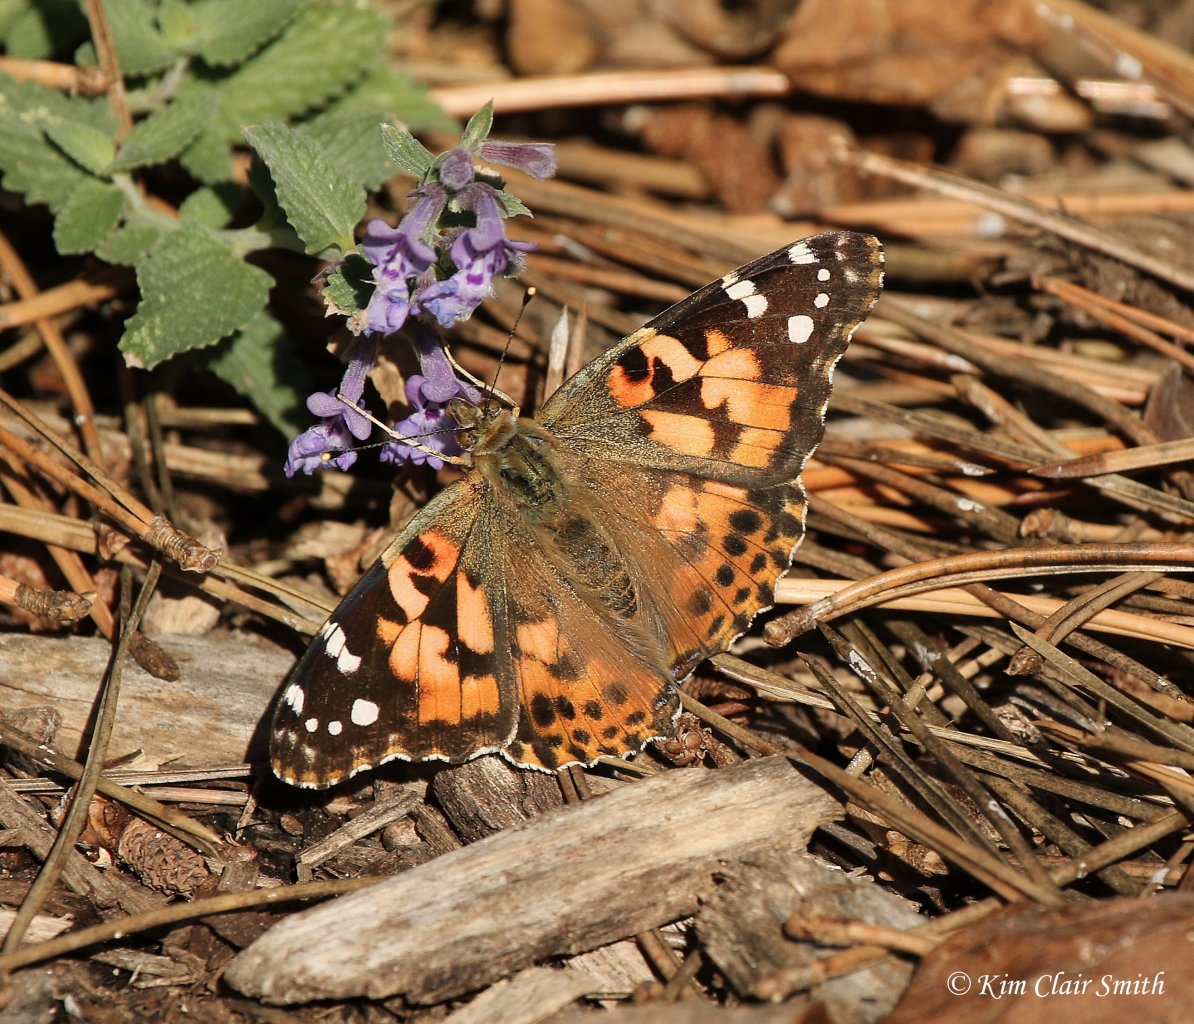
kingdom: Animalia
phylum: Arthropoda
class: Insecta
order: Lepidoptera
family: Nymphalidae
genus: Vanessa
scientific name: Vanessa cardui
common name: Painted Lady
